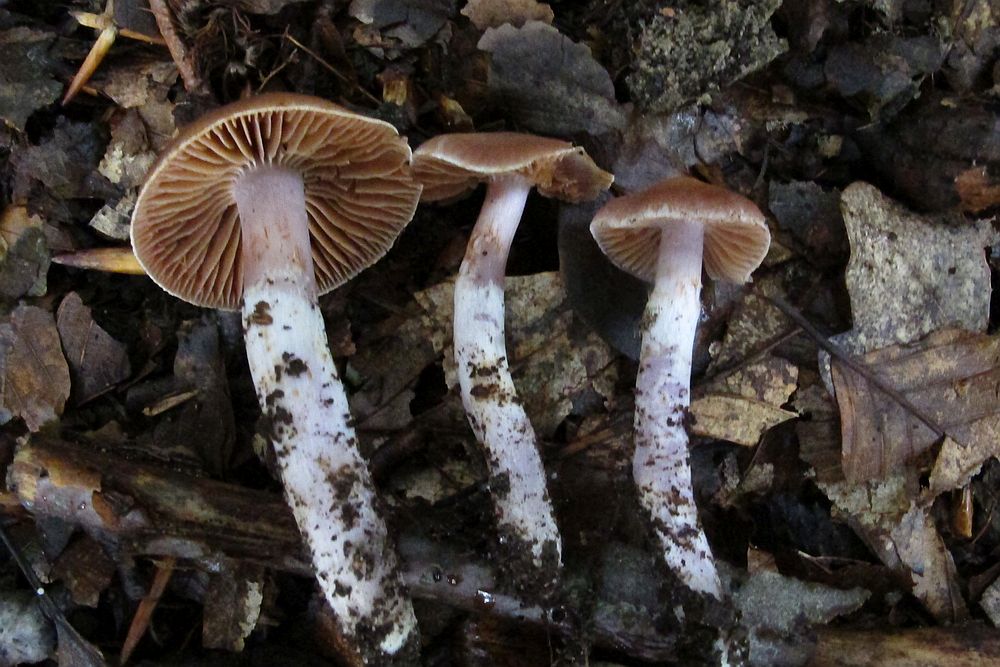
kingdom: Fungi
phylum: Basidiomycota
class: Agaricomycetes
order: Agaricales
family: Cortinariaceae
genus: Cortinarius
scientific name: Cortinarius
